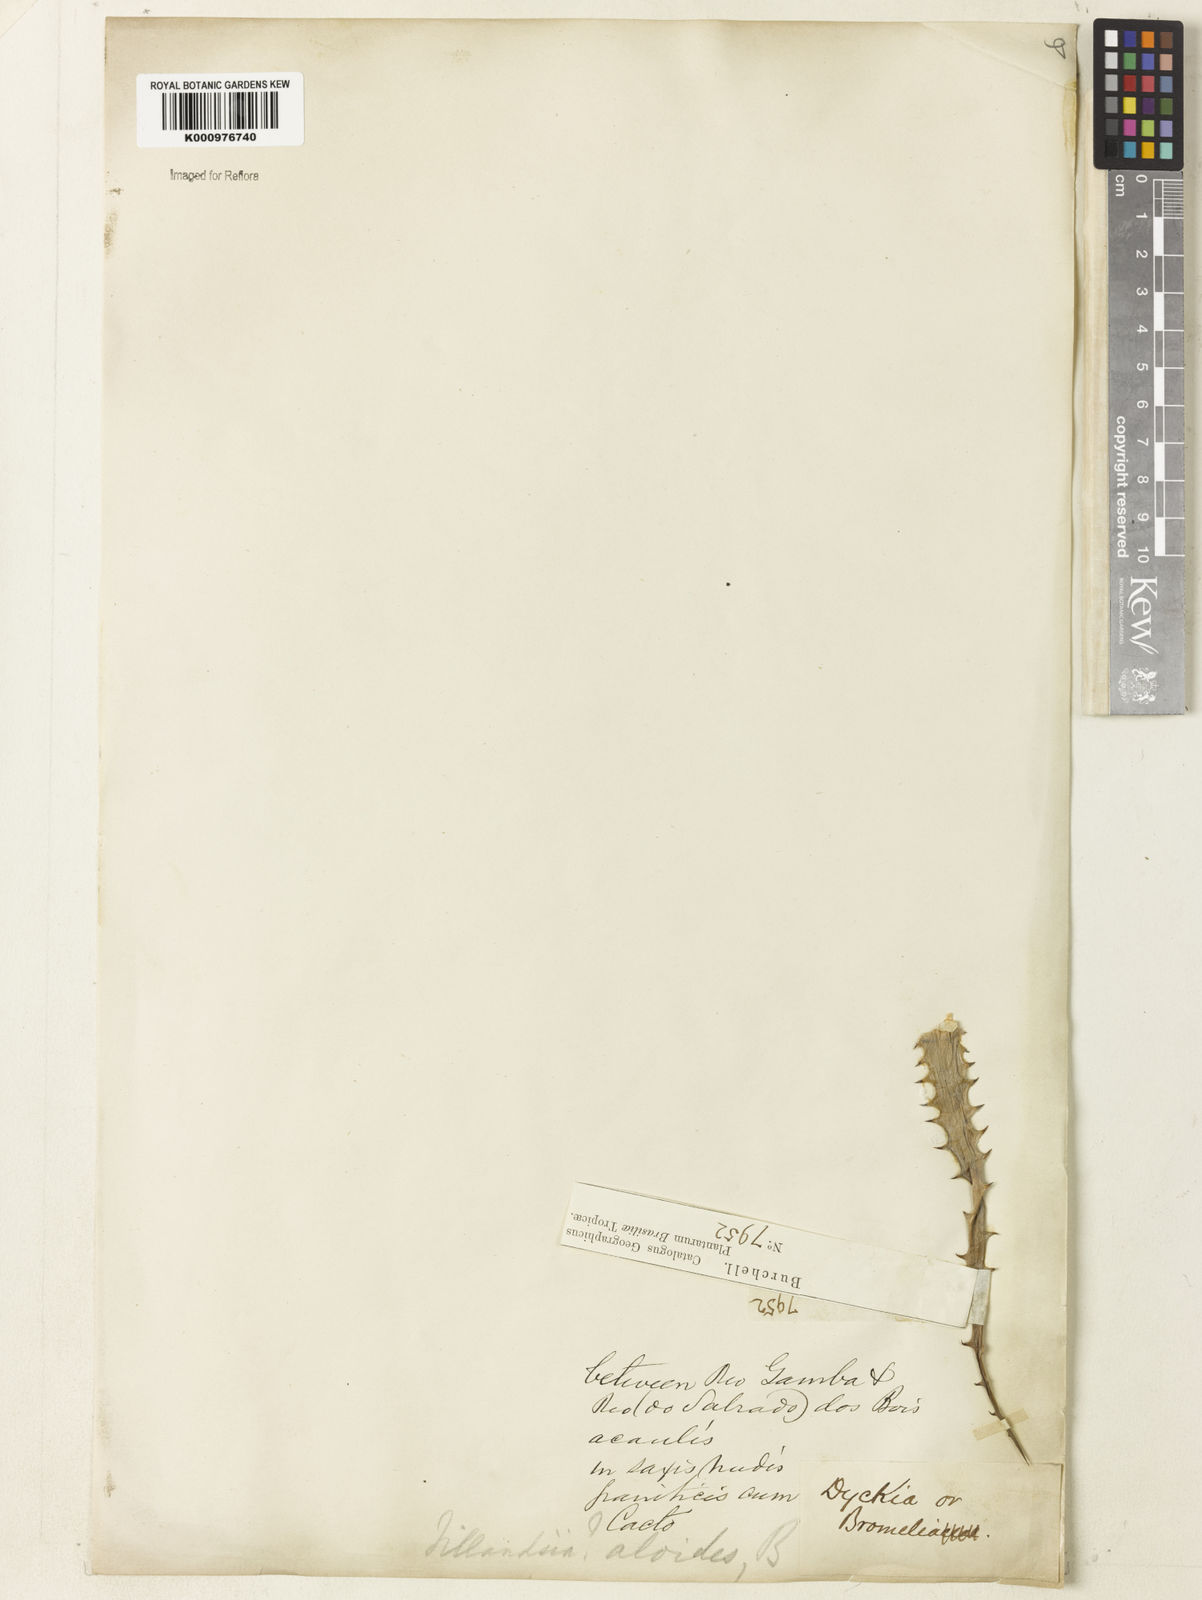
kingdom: Plantae
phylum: Tracheophyta
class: Liliopsida
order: Poales
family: Bromeliaceae
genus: Billbergia
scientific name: Billbergia
